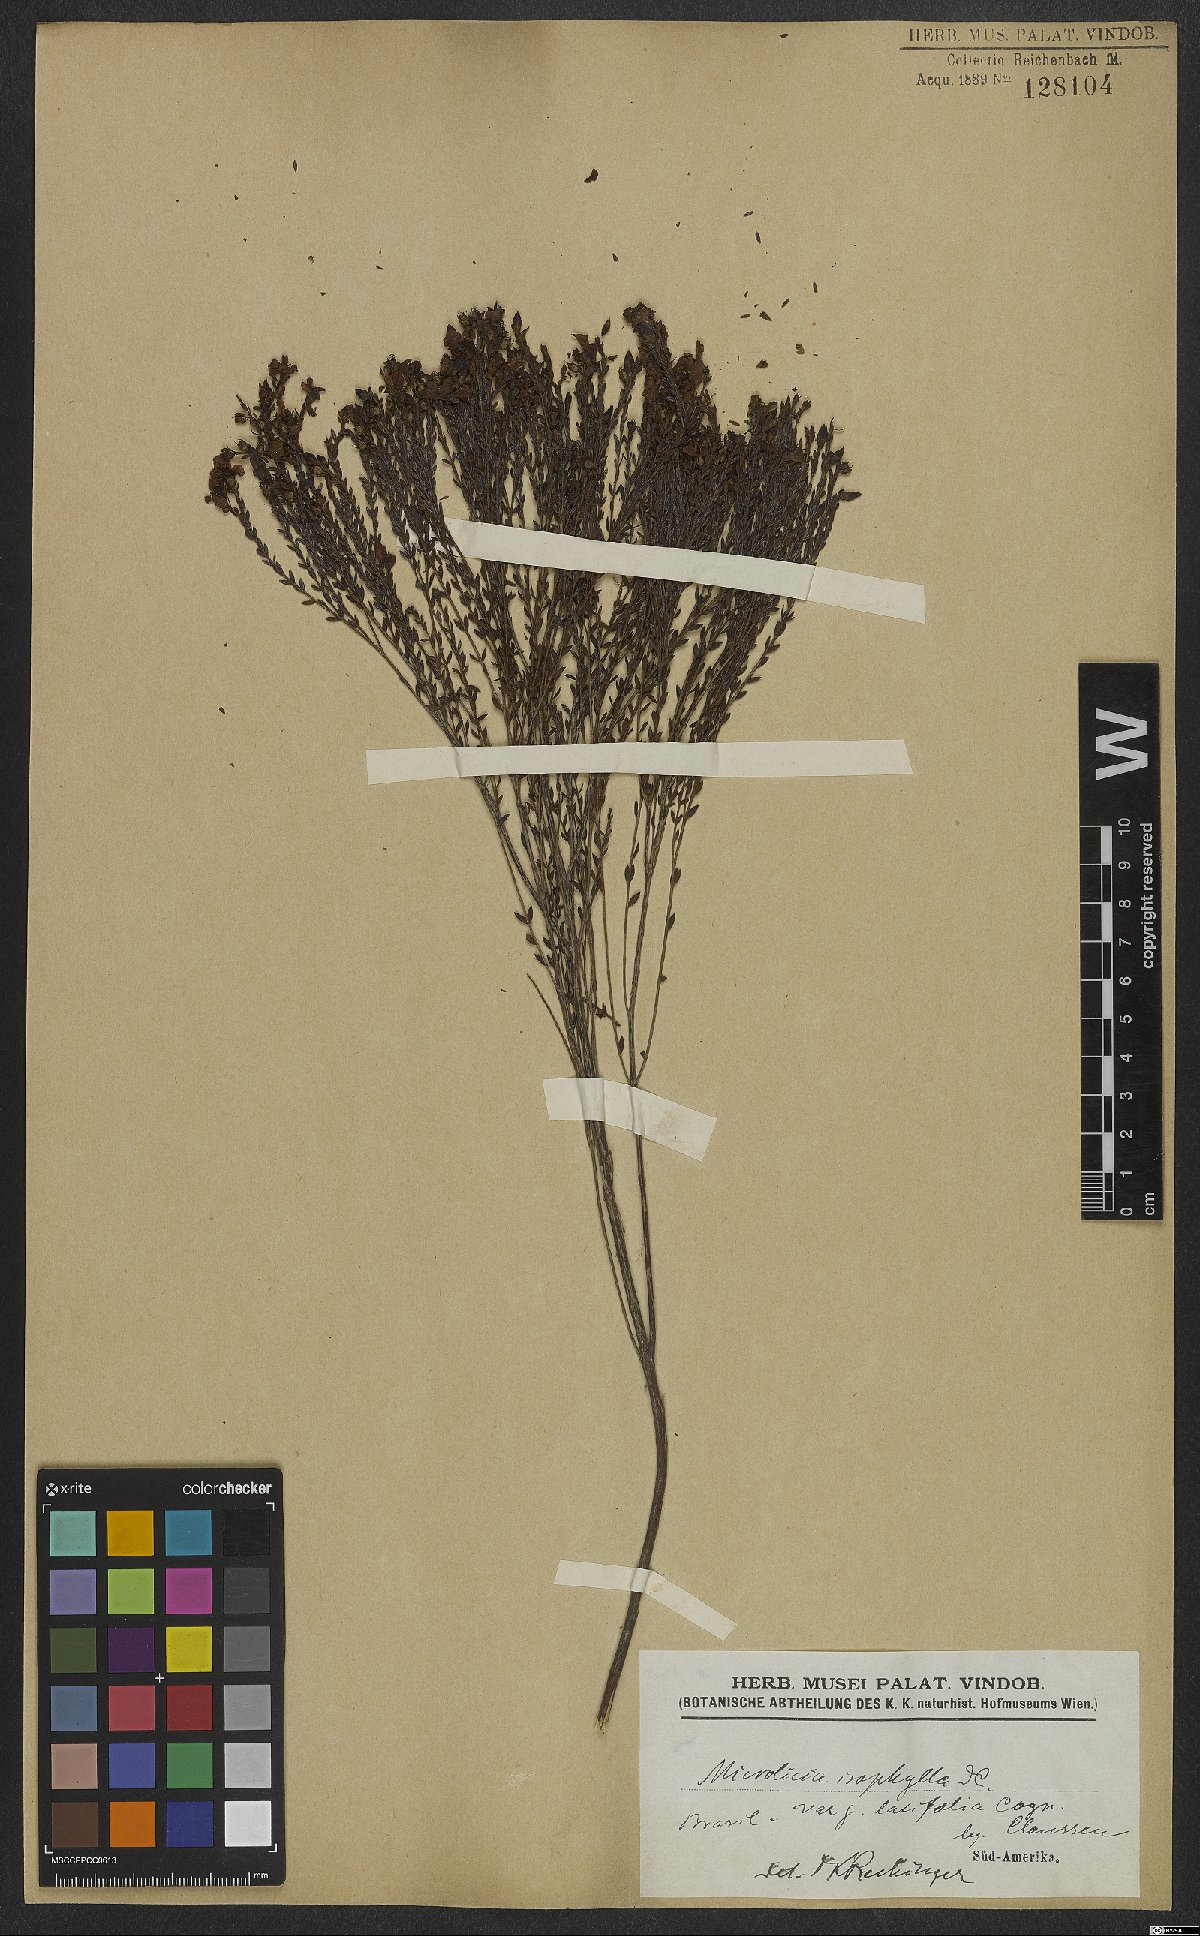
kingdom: Plantae
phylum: Tracheophyta
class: Magnoliopsida
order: Myrtales
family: Melastomataceae
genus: Microlicia
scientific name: Microlicia isophylla
